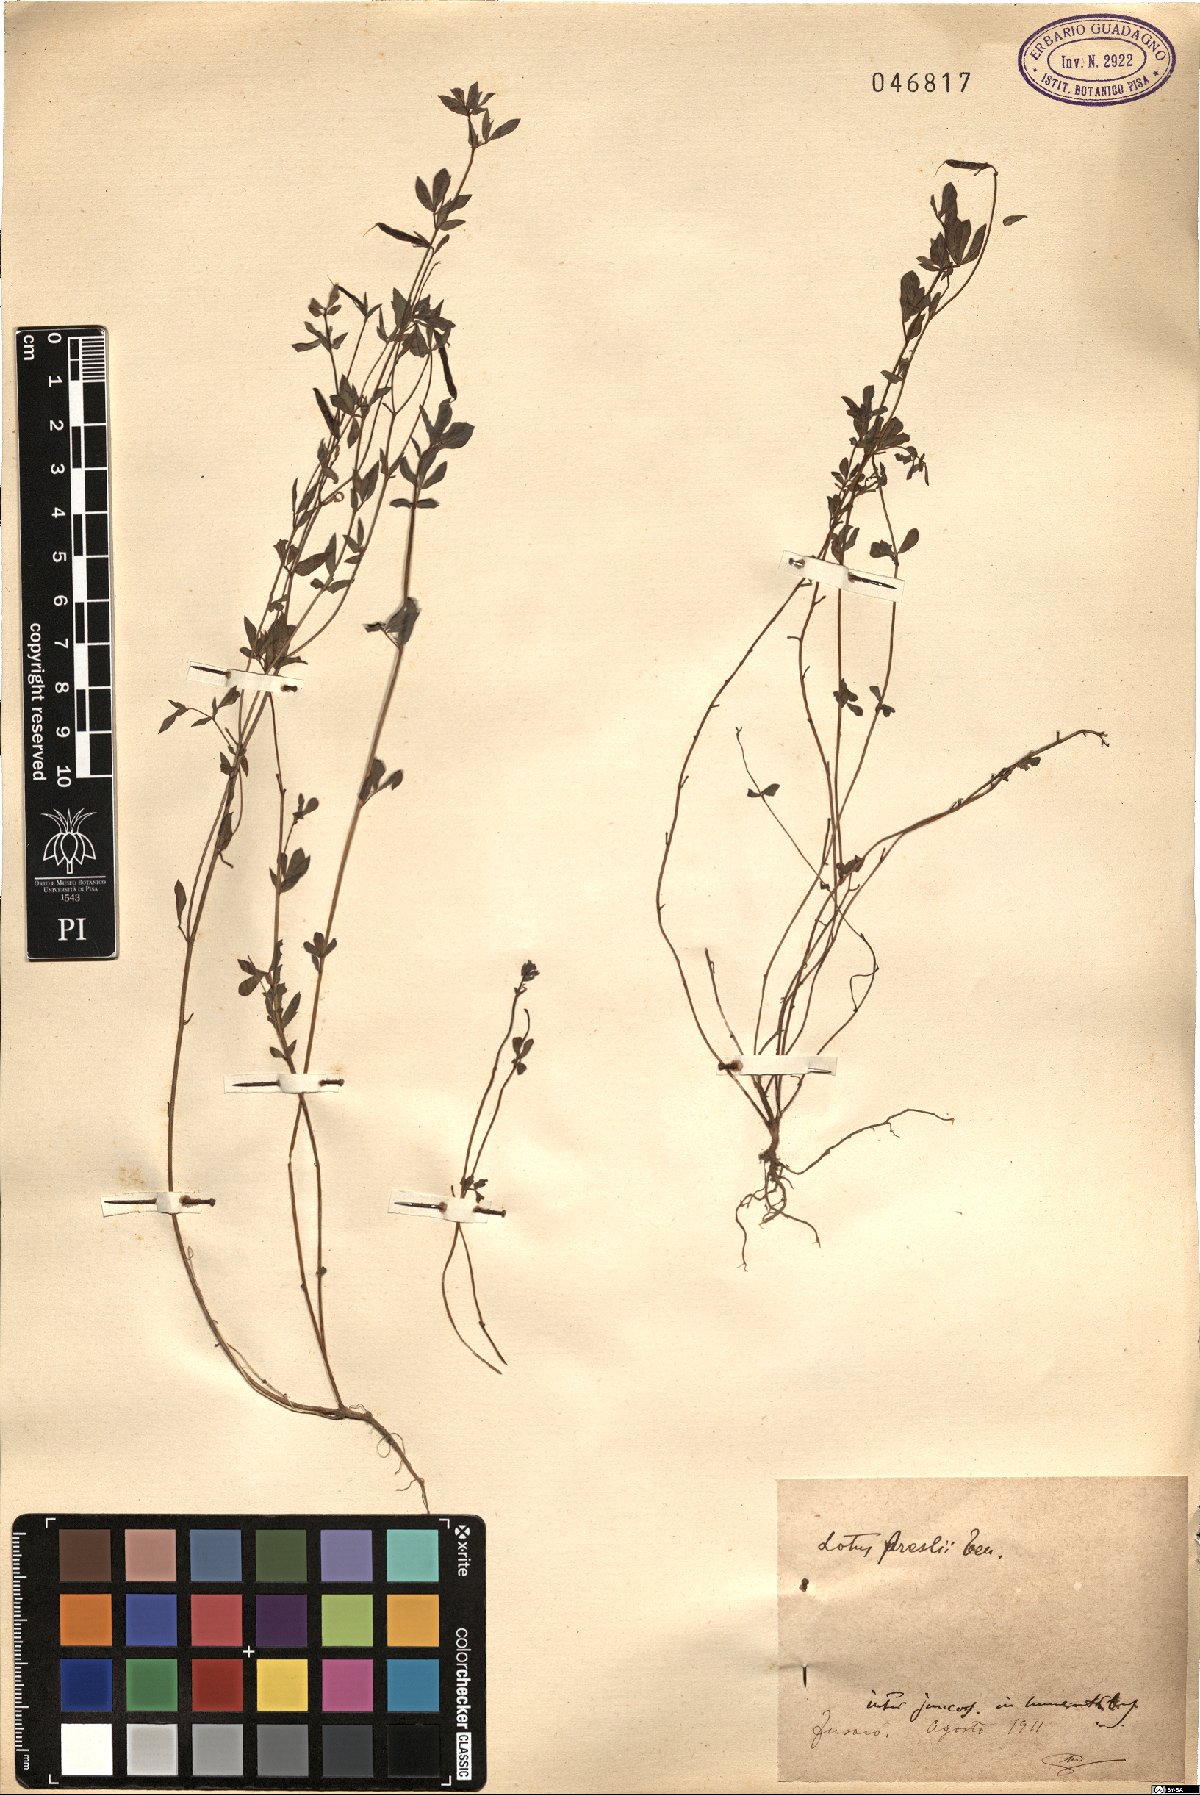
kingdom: Plantae
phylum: Tracheophyta
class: Magnoliopsida
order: Fabales
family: Fabaceae
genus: Lotus
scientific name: Lotus corniculatus
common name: Common bird's-foot-trefoil
